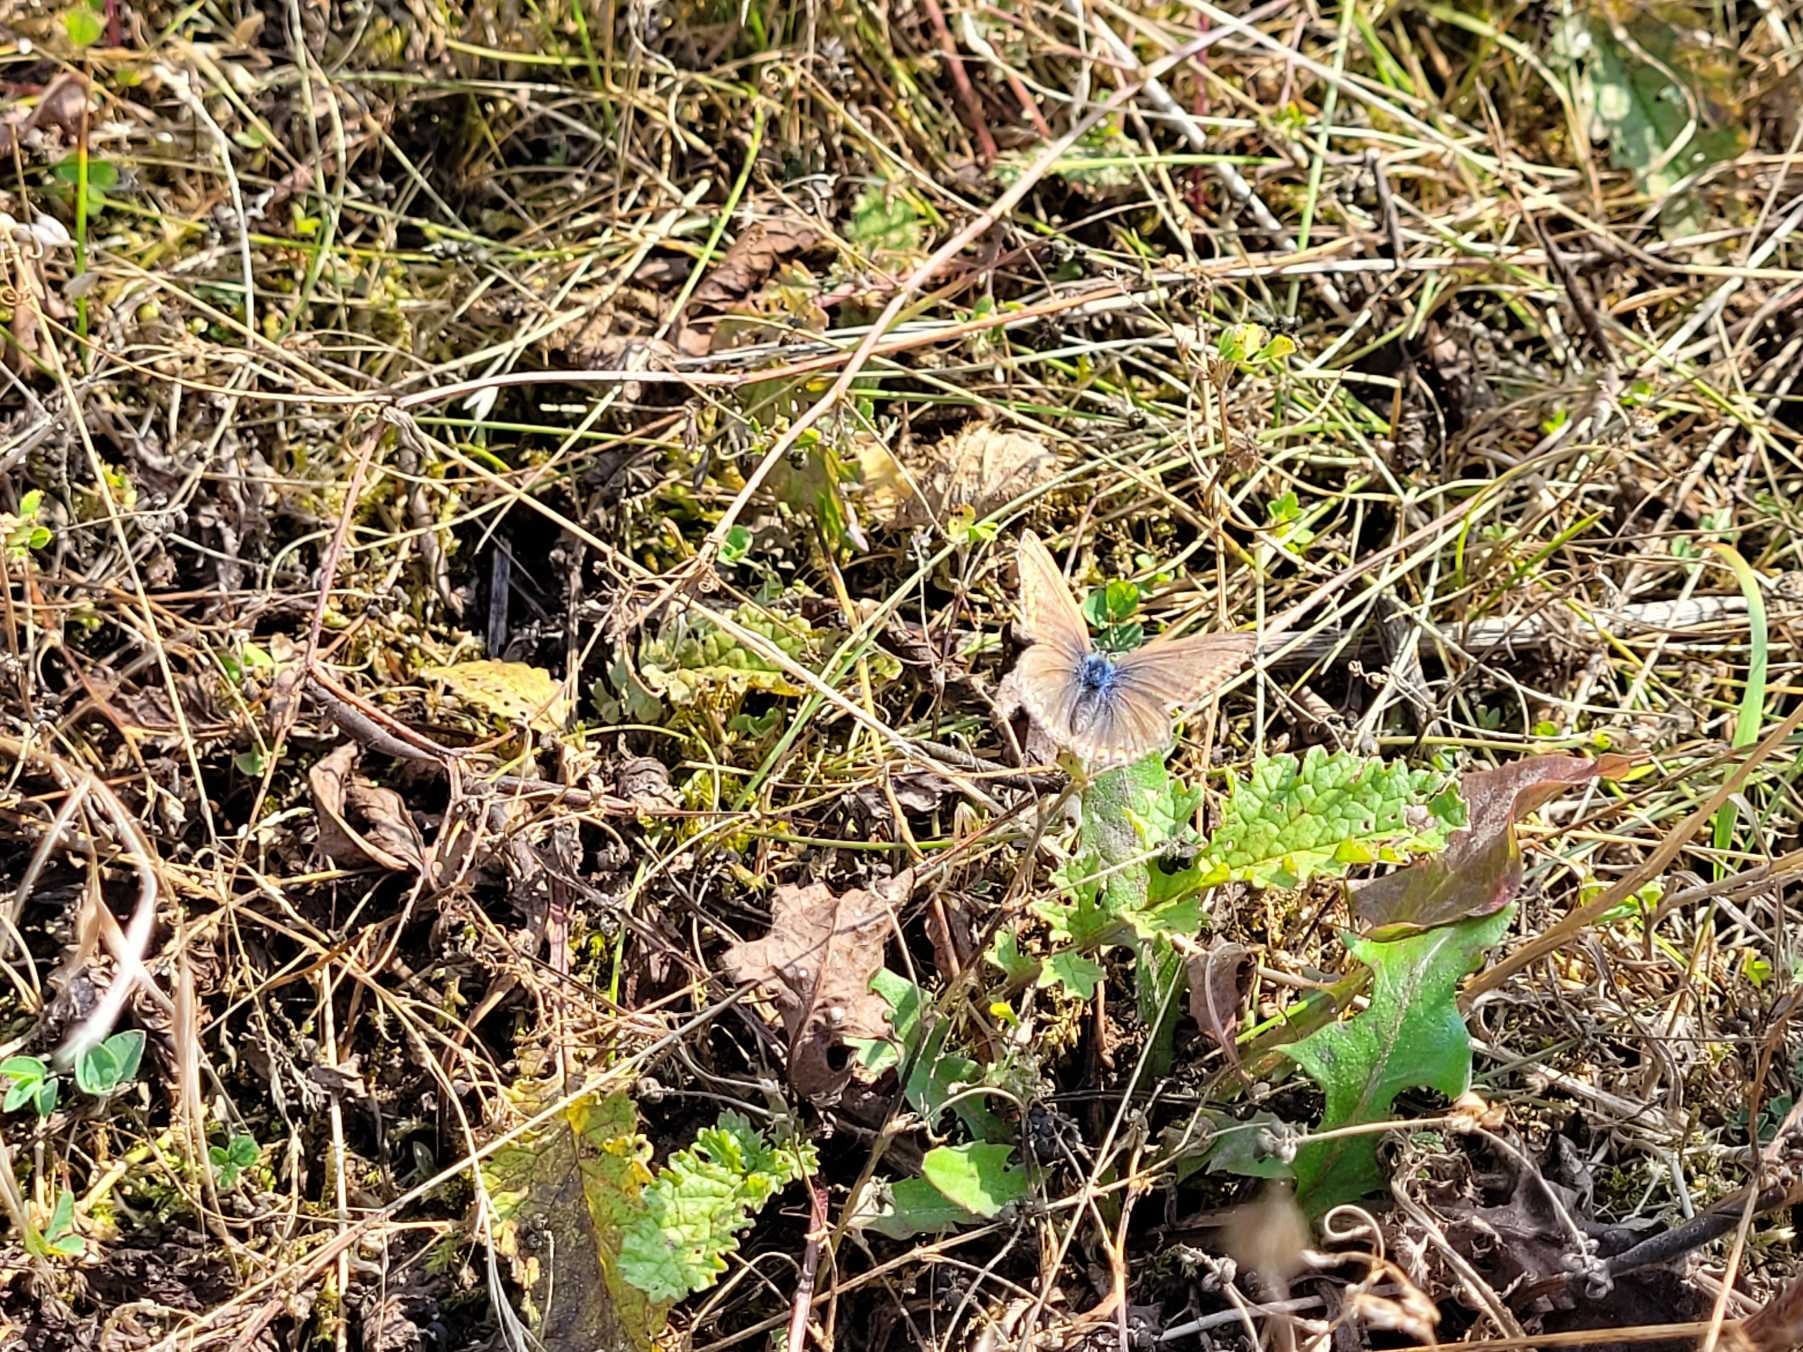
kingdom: Animalia
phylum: Arthropoda
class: Insecta
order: Lepidoptera
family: Lycaenidae
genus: Polyommatus
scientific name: Polyommatus icarus
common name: Almindelig blåfugl
